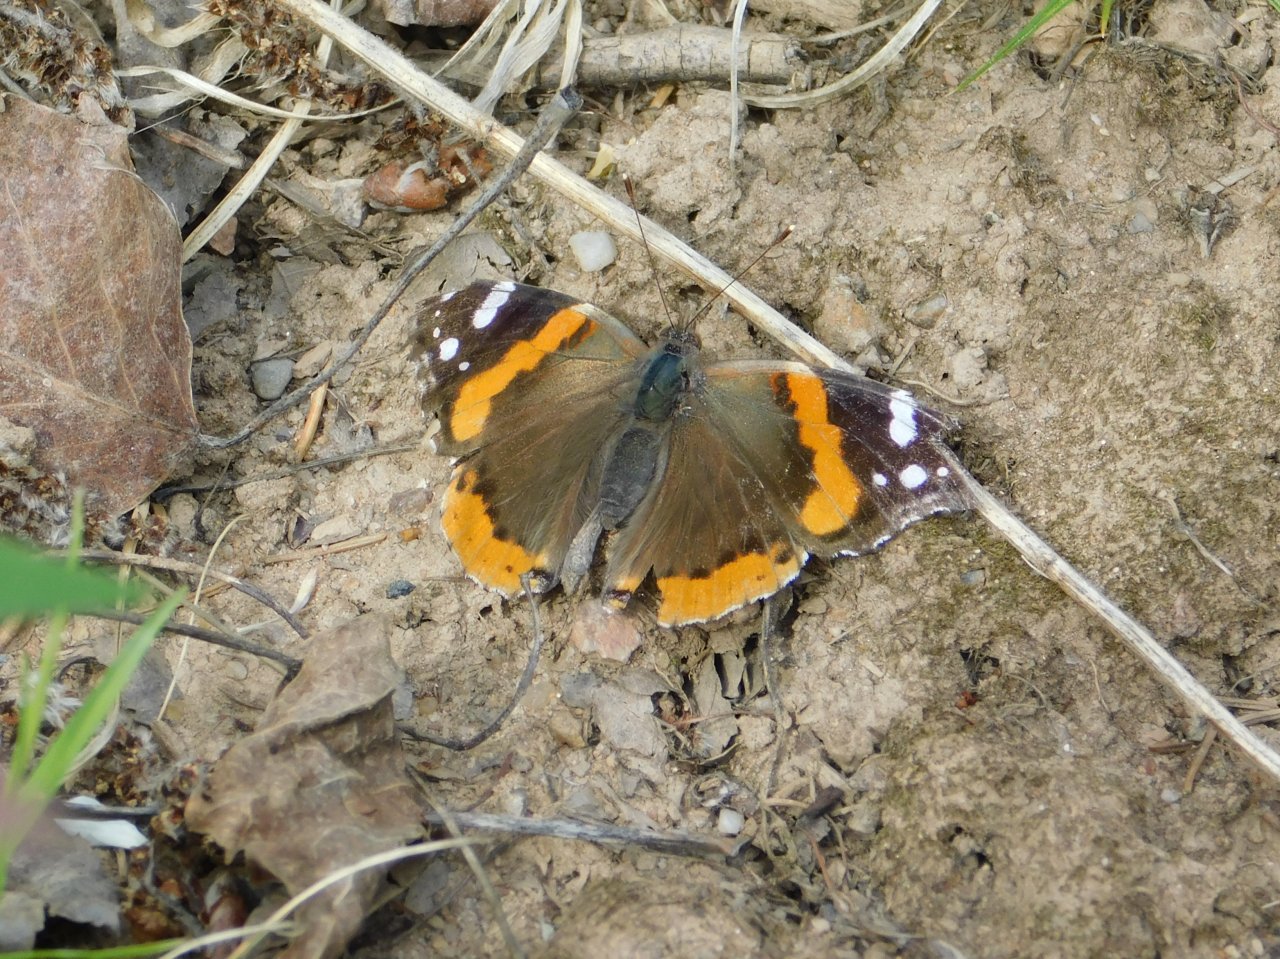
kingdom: Animalia
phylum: Arthropoda
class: Insecta
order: Lepidoptera
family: Nymphalidae
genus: Vanessa
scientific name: Vanessa atalanta
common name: Red Admiral
